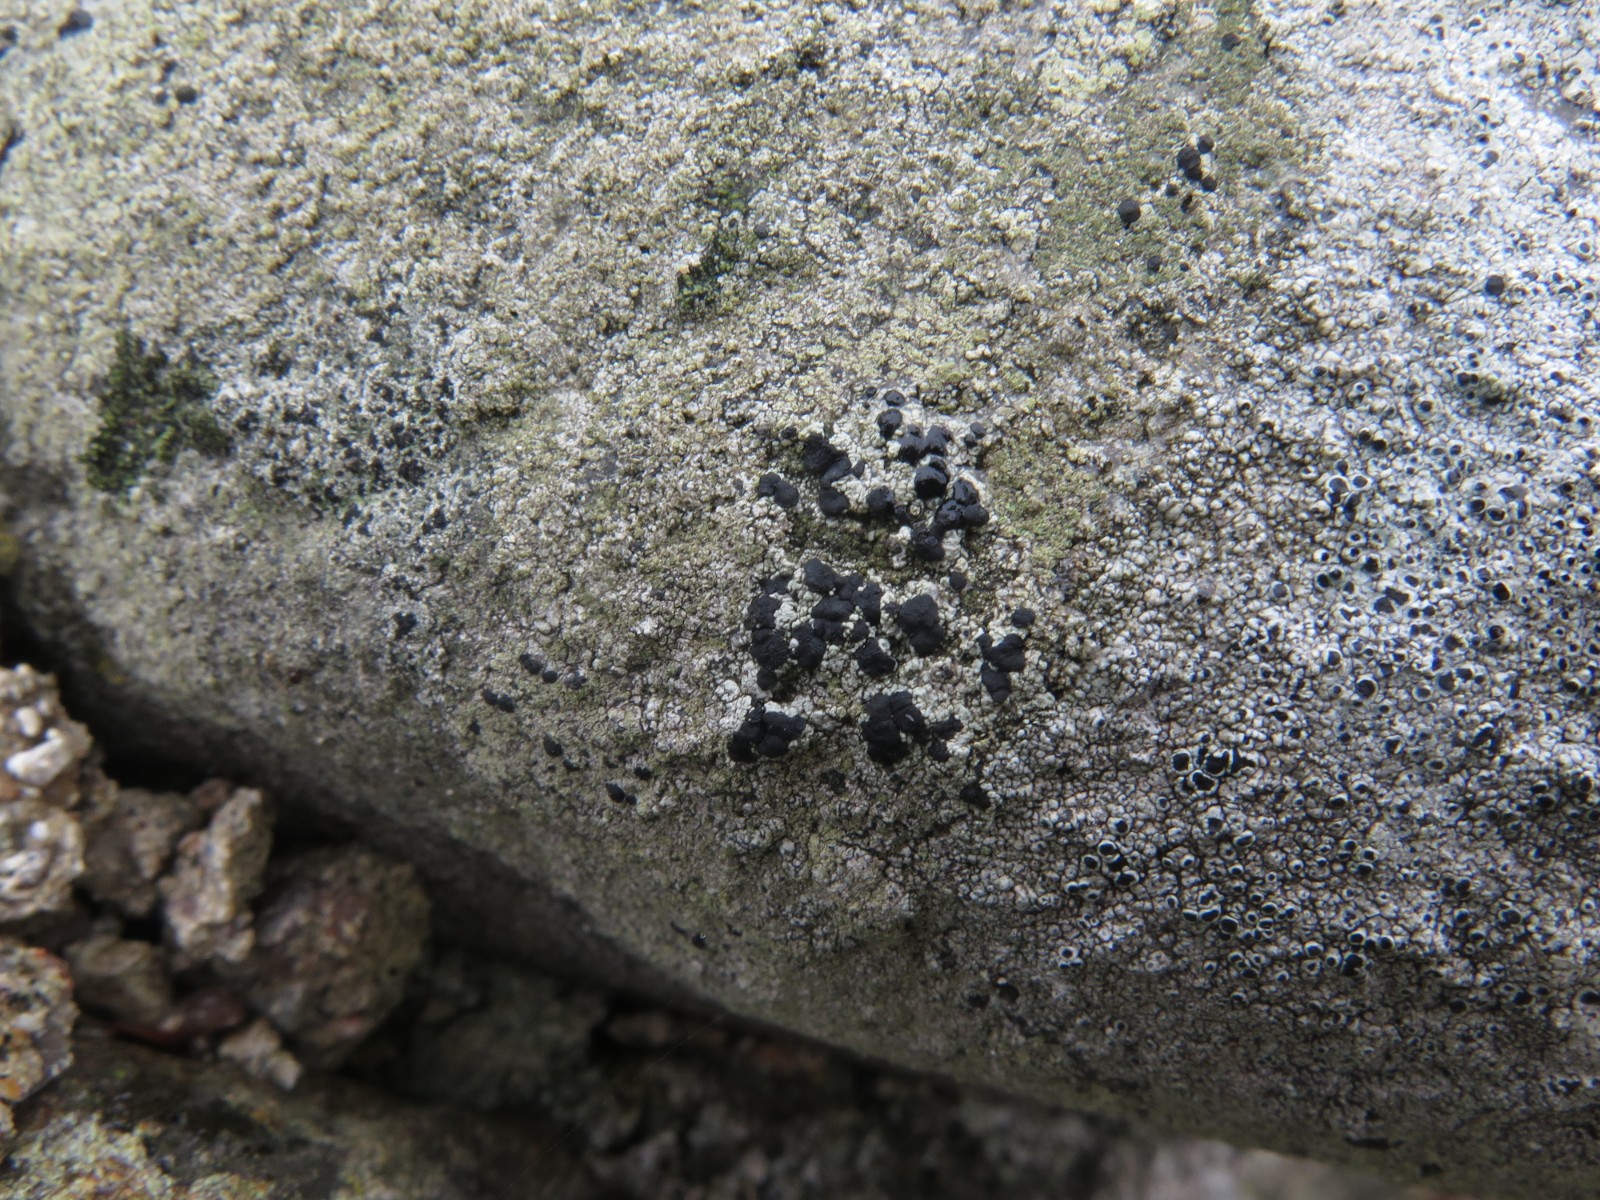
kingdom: Fungi
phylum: Ascomycota
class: Lecanoromycetes
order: Lecanorales
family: Lecanoraceae
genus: Lecidella
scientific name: Lecidella scabra
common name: skurvet skivelav
